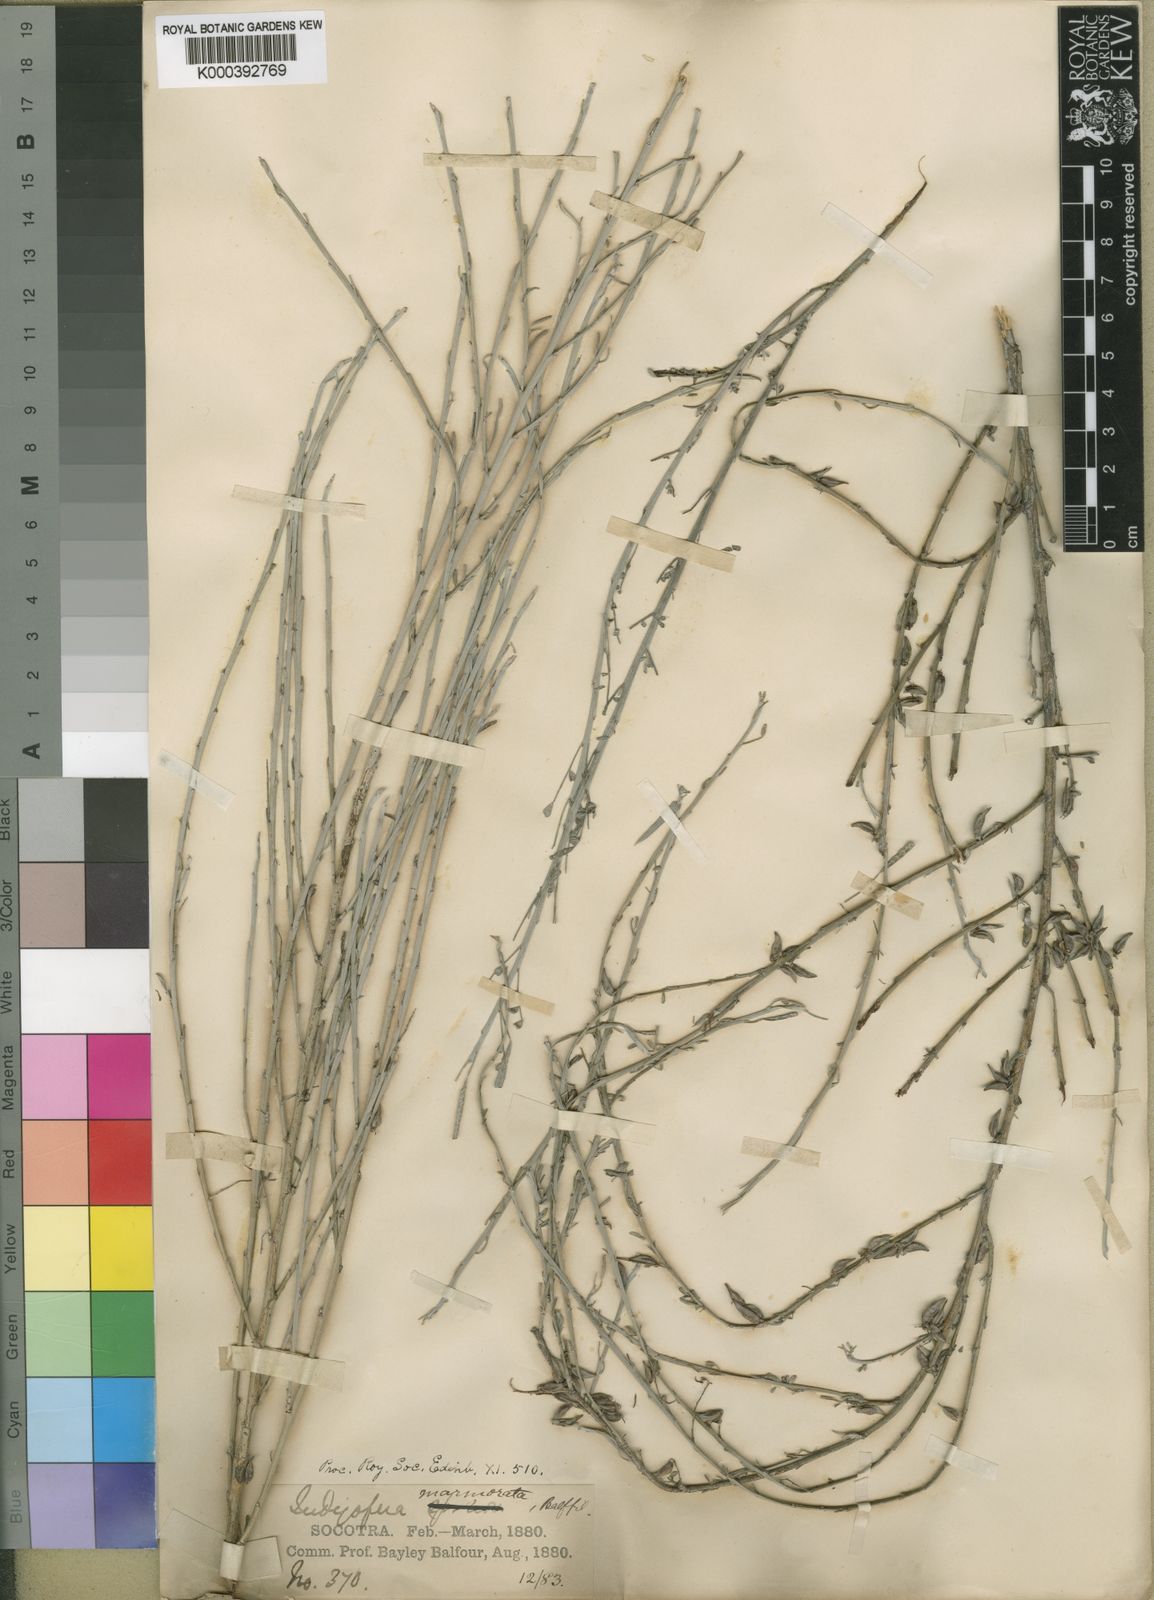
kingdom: Plantae
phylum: Tracheophyta
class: Magnoliopsida
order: Fabales
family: Fabaceae
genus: Indigofera
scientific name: Indigofera marmorata
